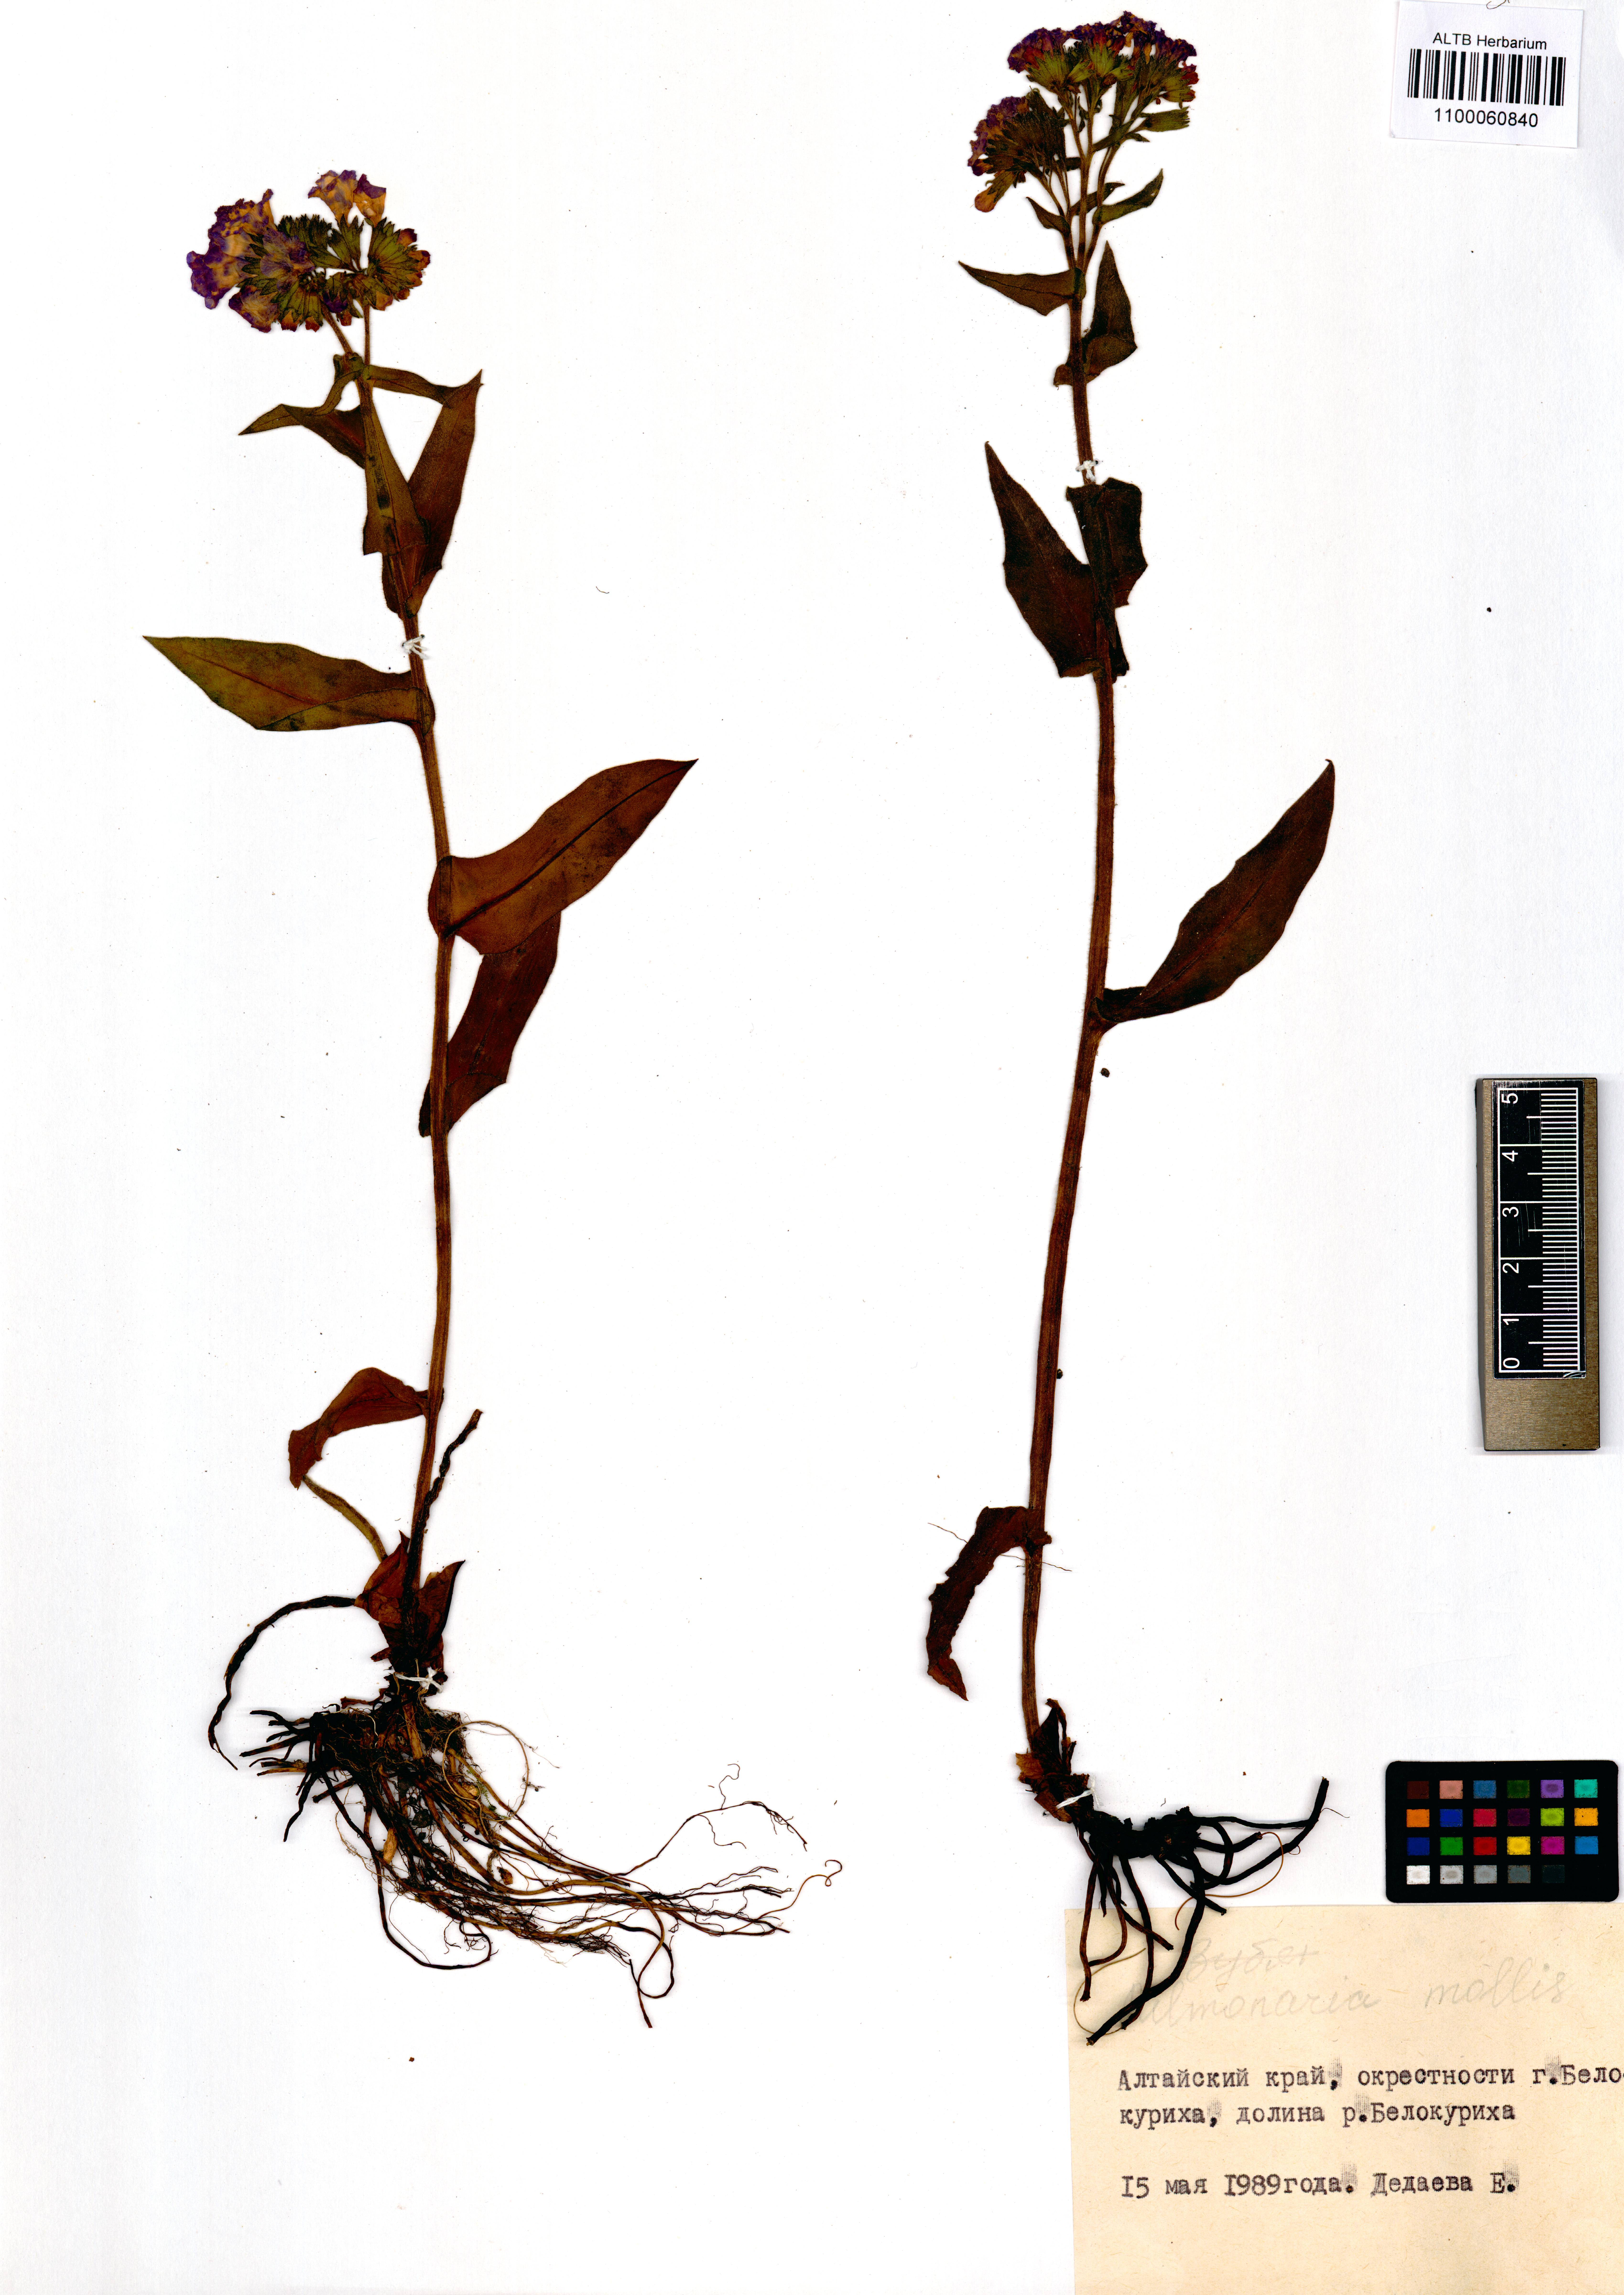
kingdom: Plantae
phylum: Tracheophyta
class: Magnoliopsida
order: Boraginales
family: Boraginaceae
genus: Pulmonaria
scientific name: Pulmonaria mollis
